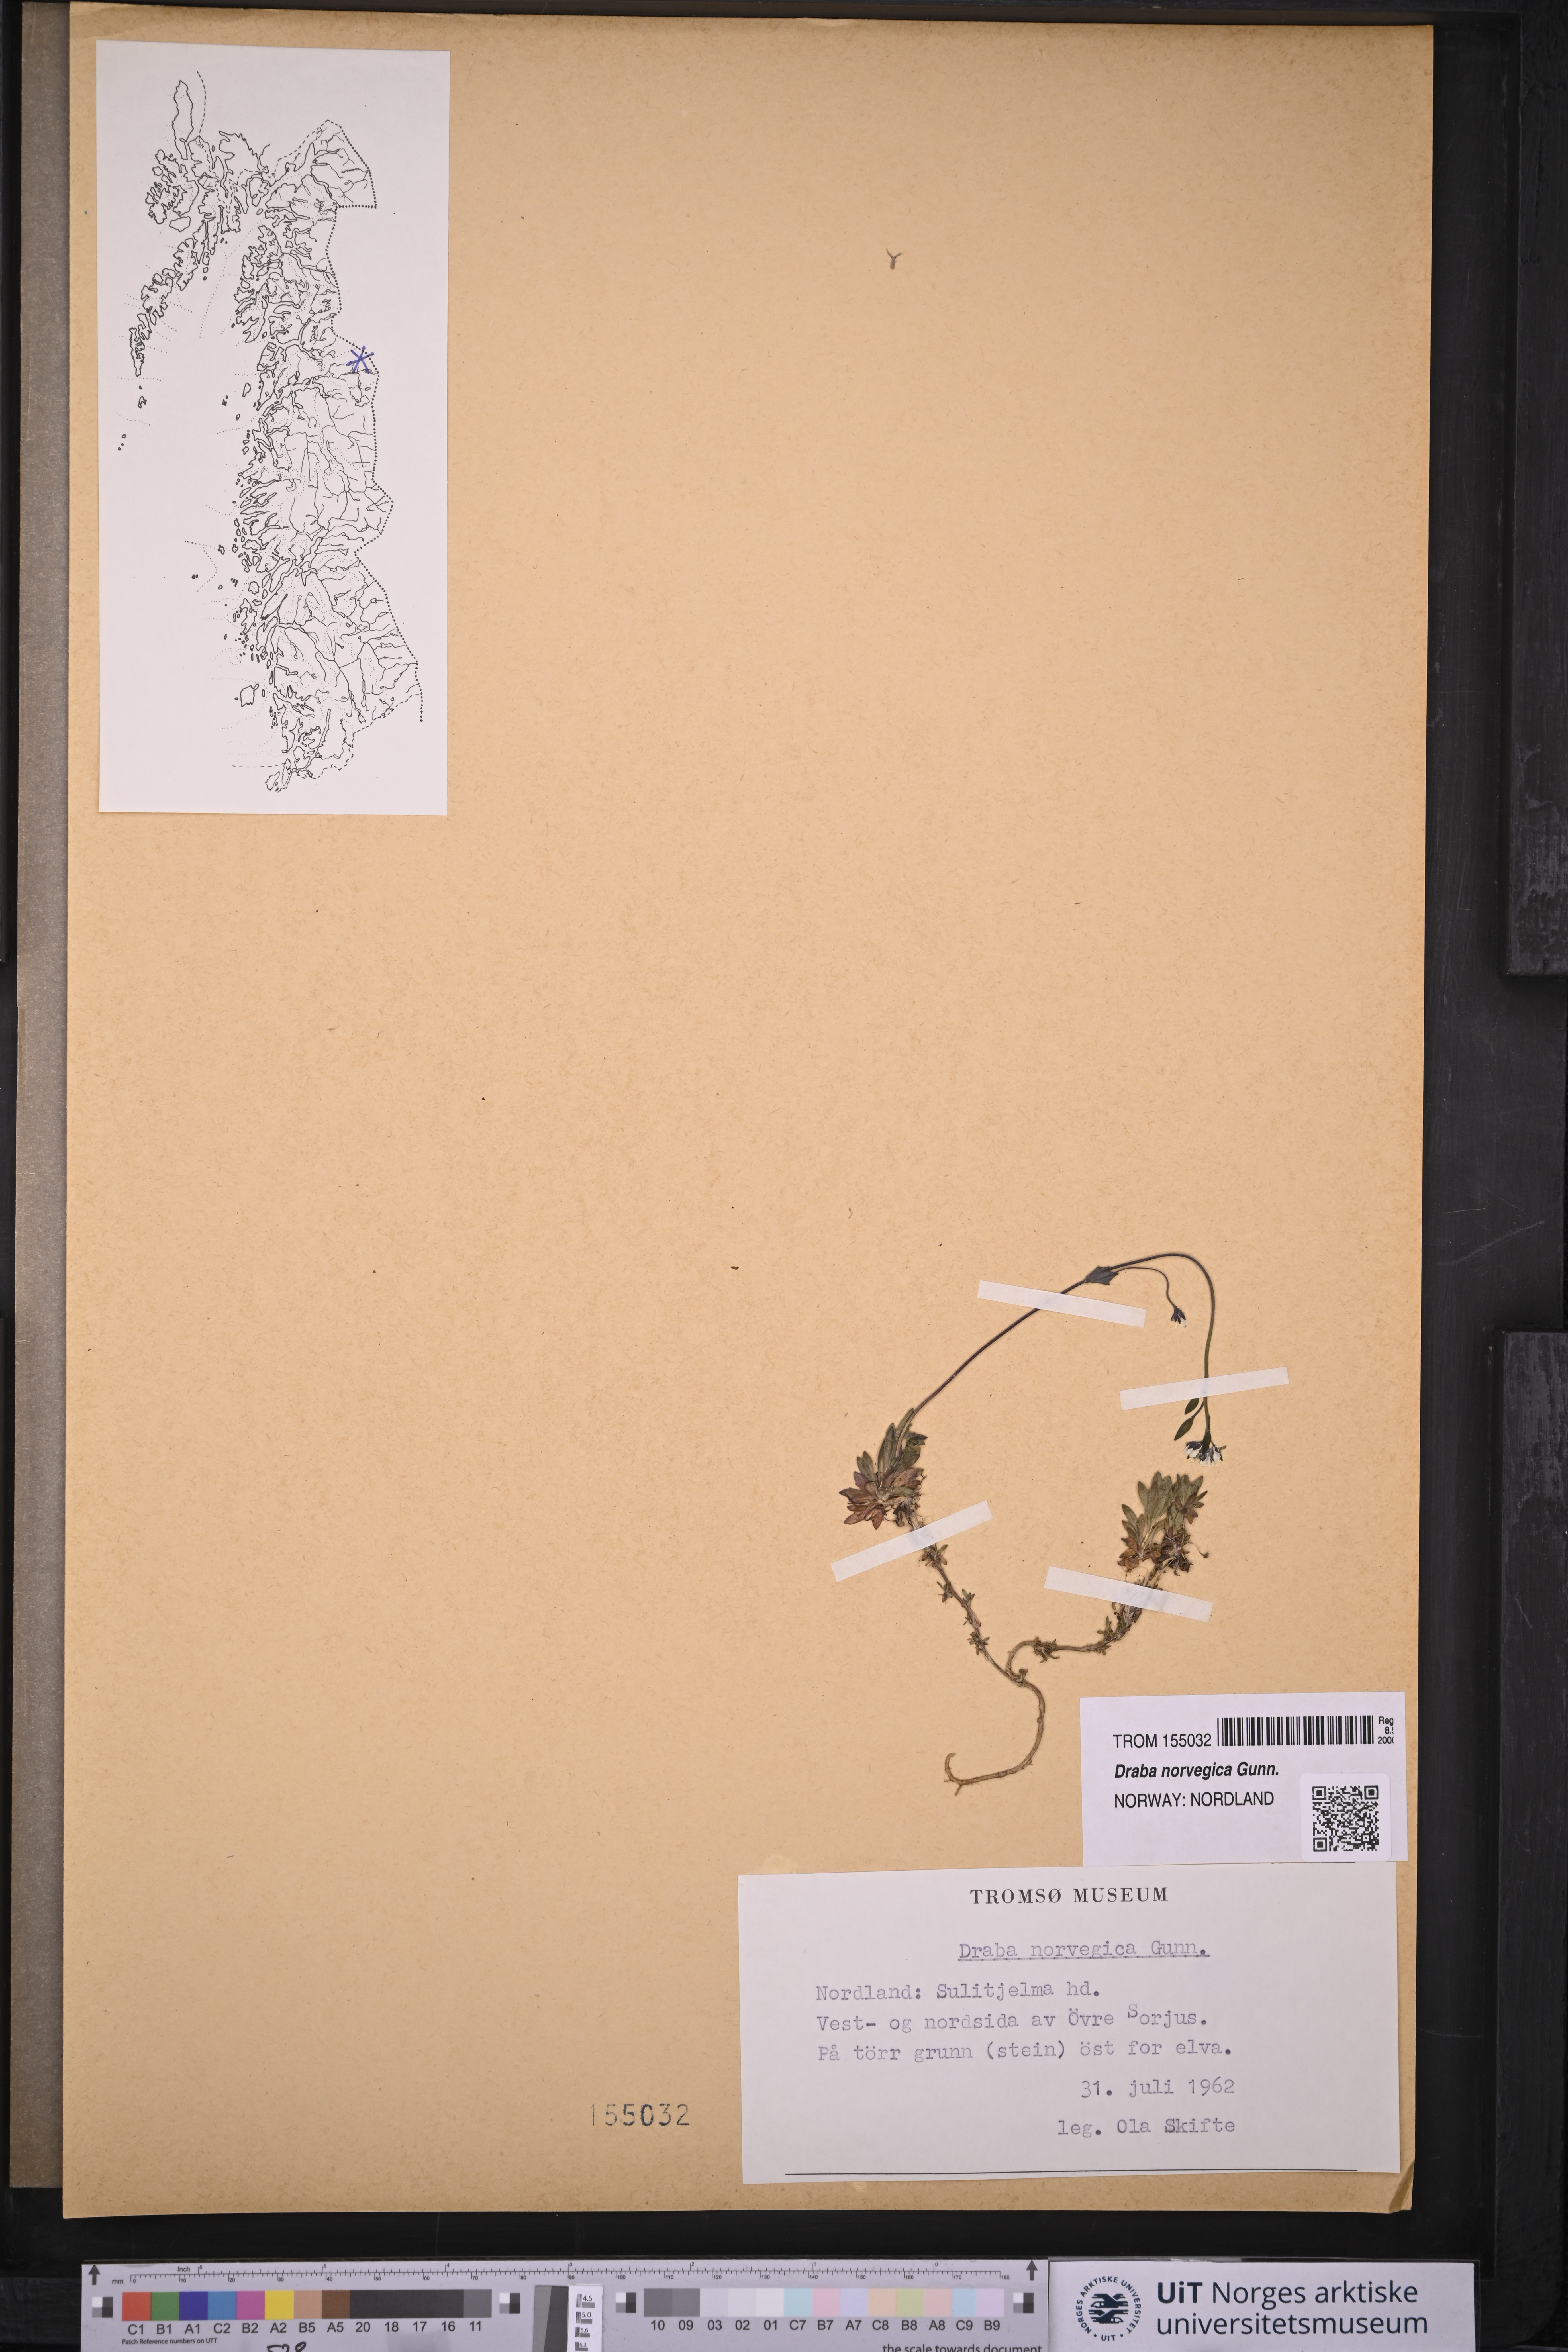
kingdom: Plantae
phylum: Tracheophyta
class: Magnoliopsida
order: Brassicales
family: Brassicaceae
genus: Draba
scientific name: Draba norvegica
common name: Rock whitlowgrass
